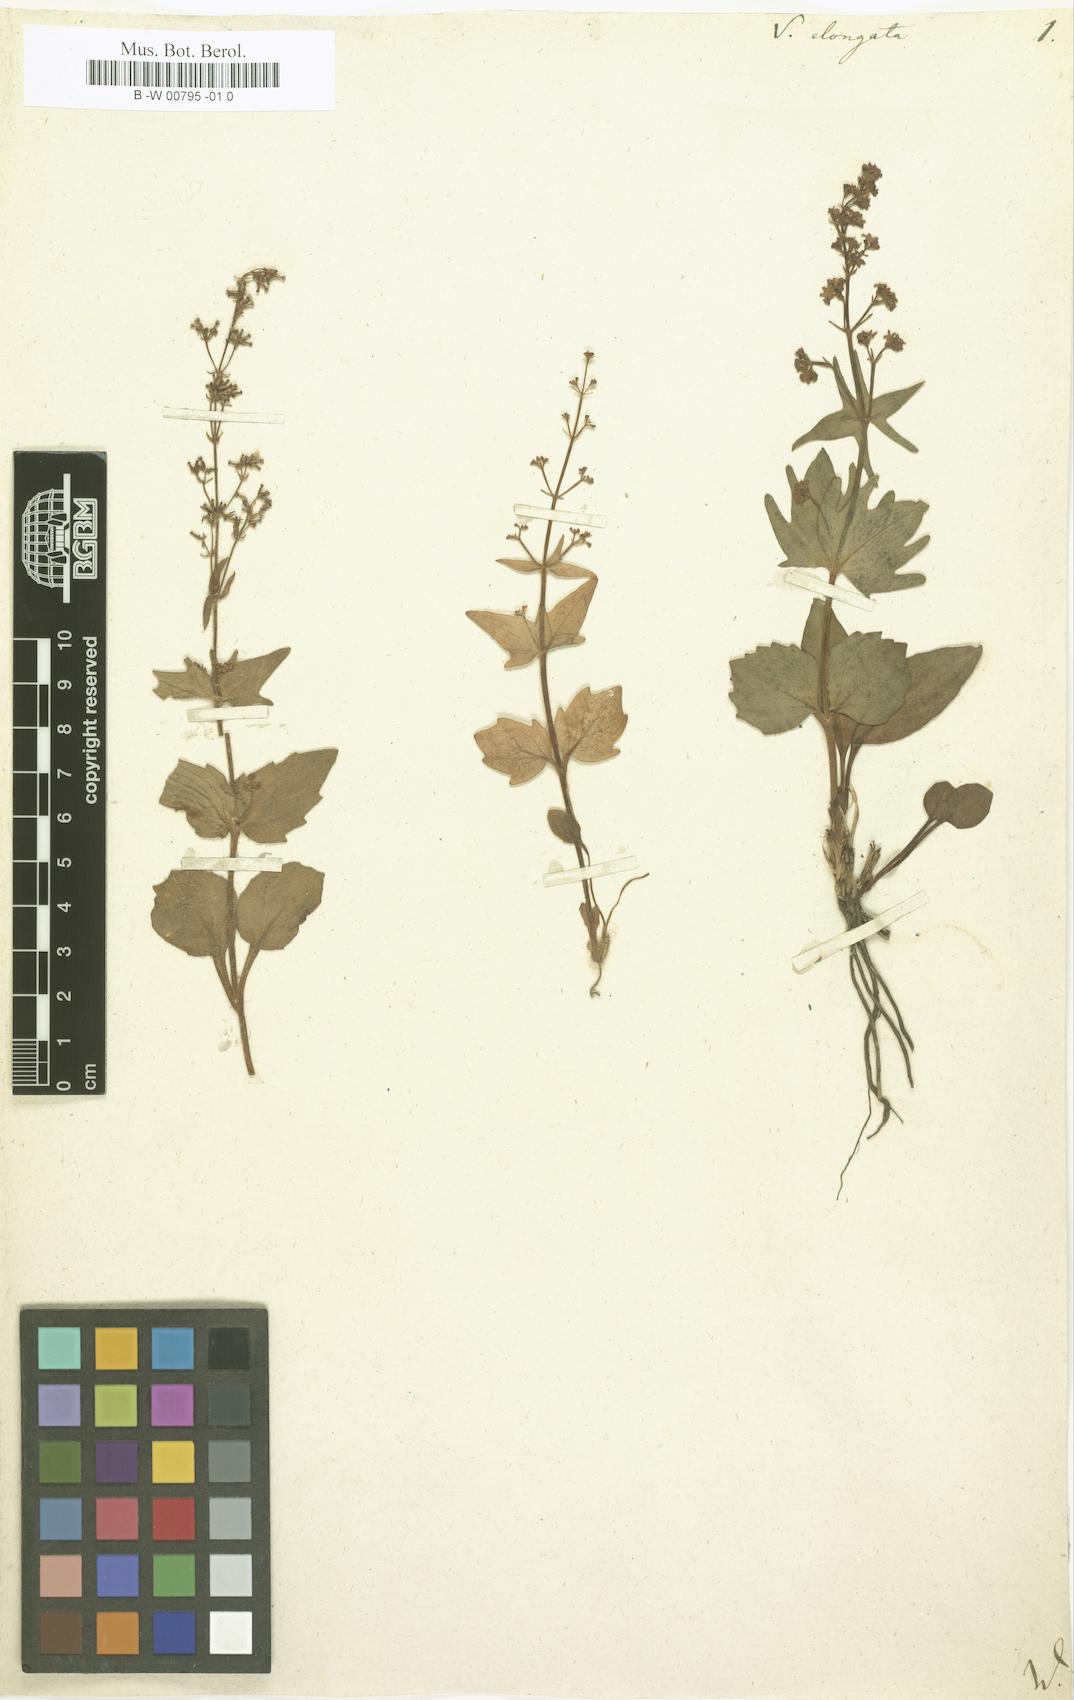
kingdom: Plantae
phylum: Tracheophyta
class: Magnoliopsida
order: Dipsacales
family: Caprifoliaceae
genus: Valeriana
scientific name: Valeriana elongata
